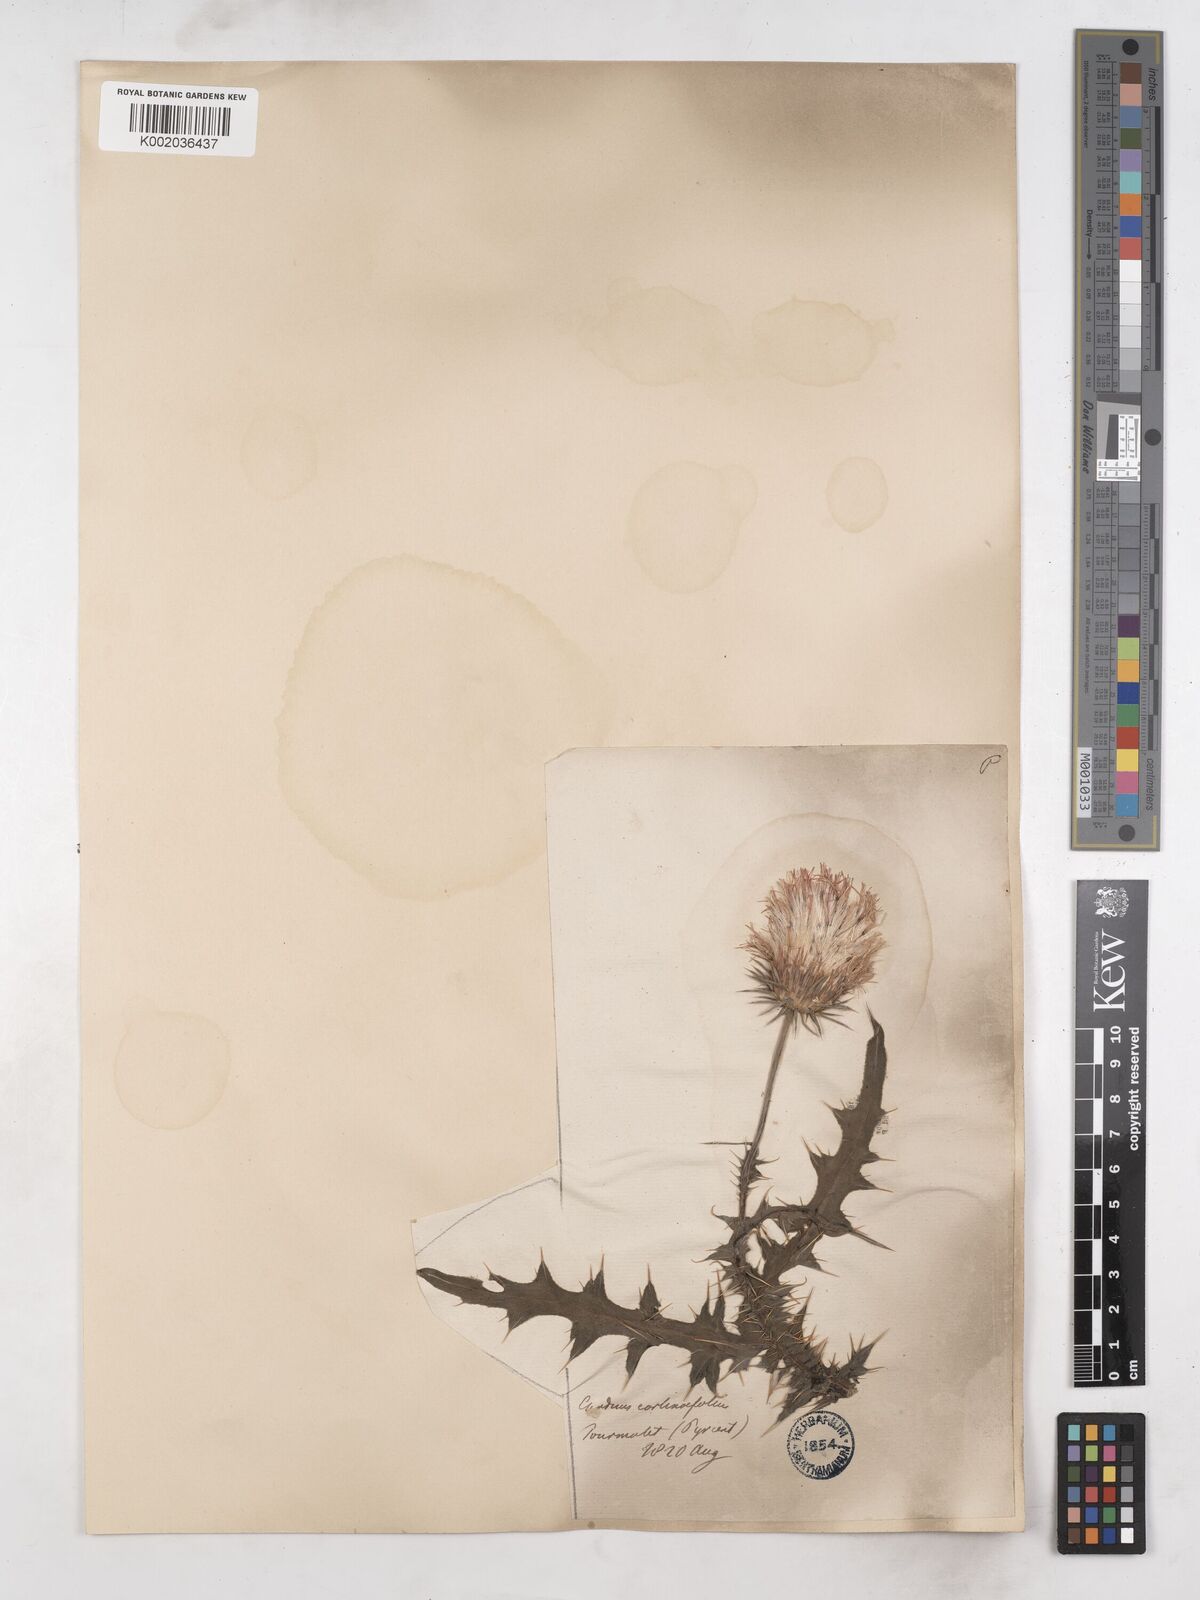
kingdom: Plantae
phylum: Tracheophyta
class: Magnoliopsida
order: Asterales
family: Asteraceae
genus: Carduus
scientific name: Carduus carlinifolius
